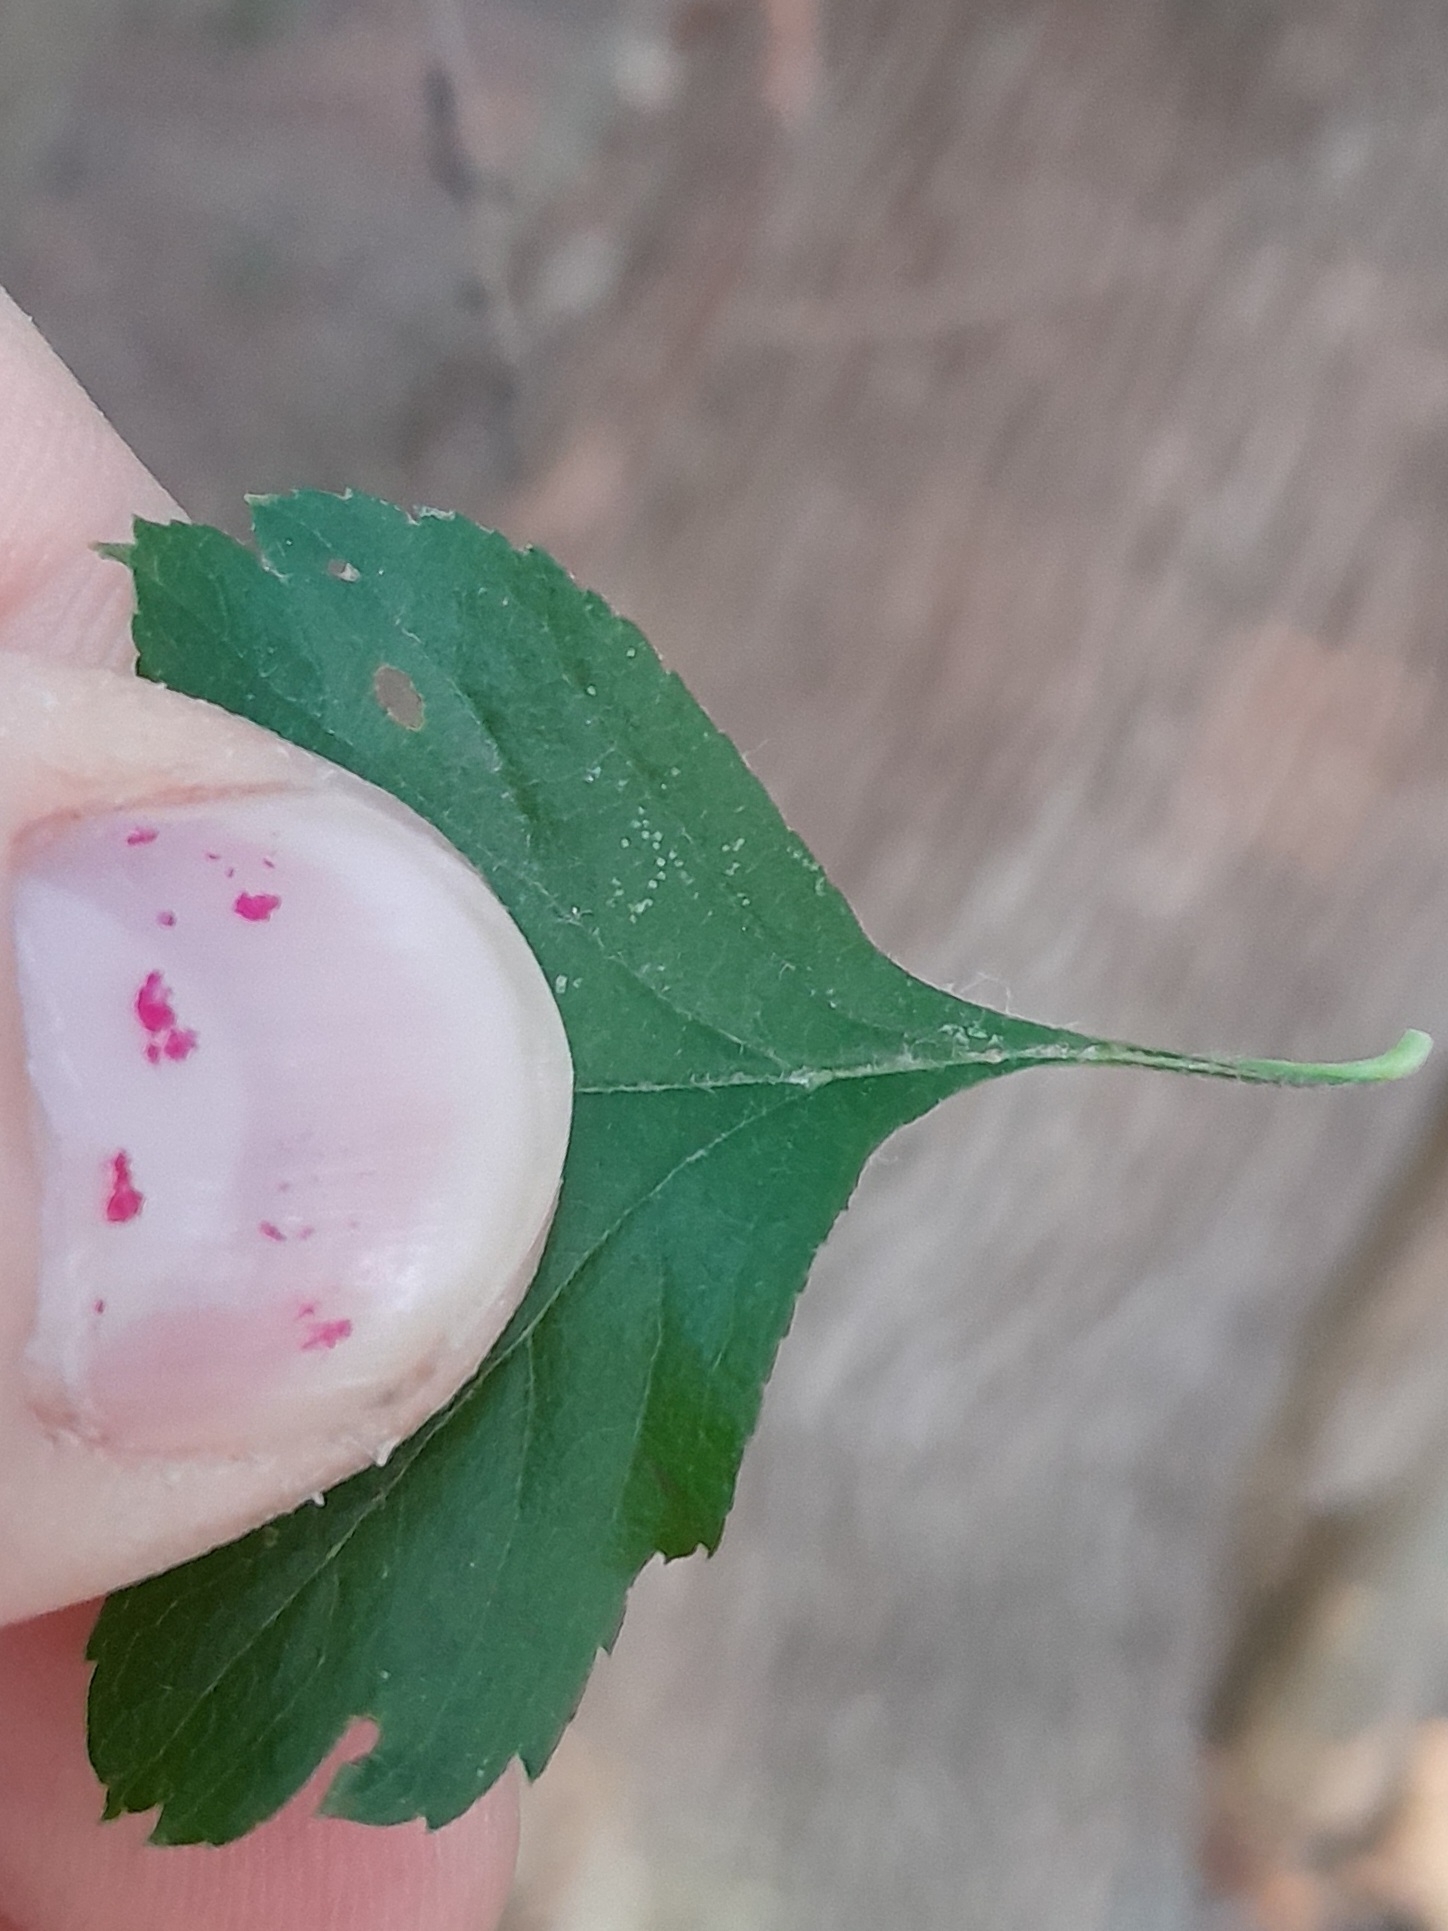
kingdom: Plantae
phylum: Tracheophyta
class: Magnoliopsida
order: Rosales
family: Rosaceae
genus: Crataegus
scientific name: Crataegus rhipidophylla
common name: Koral-hvidtjørn
